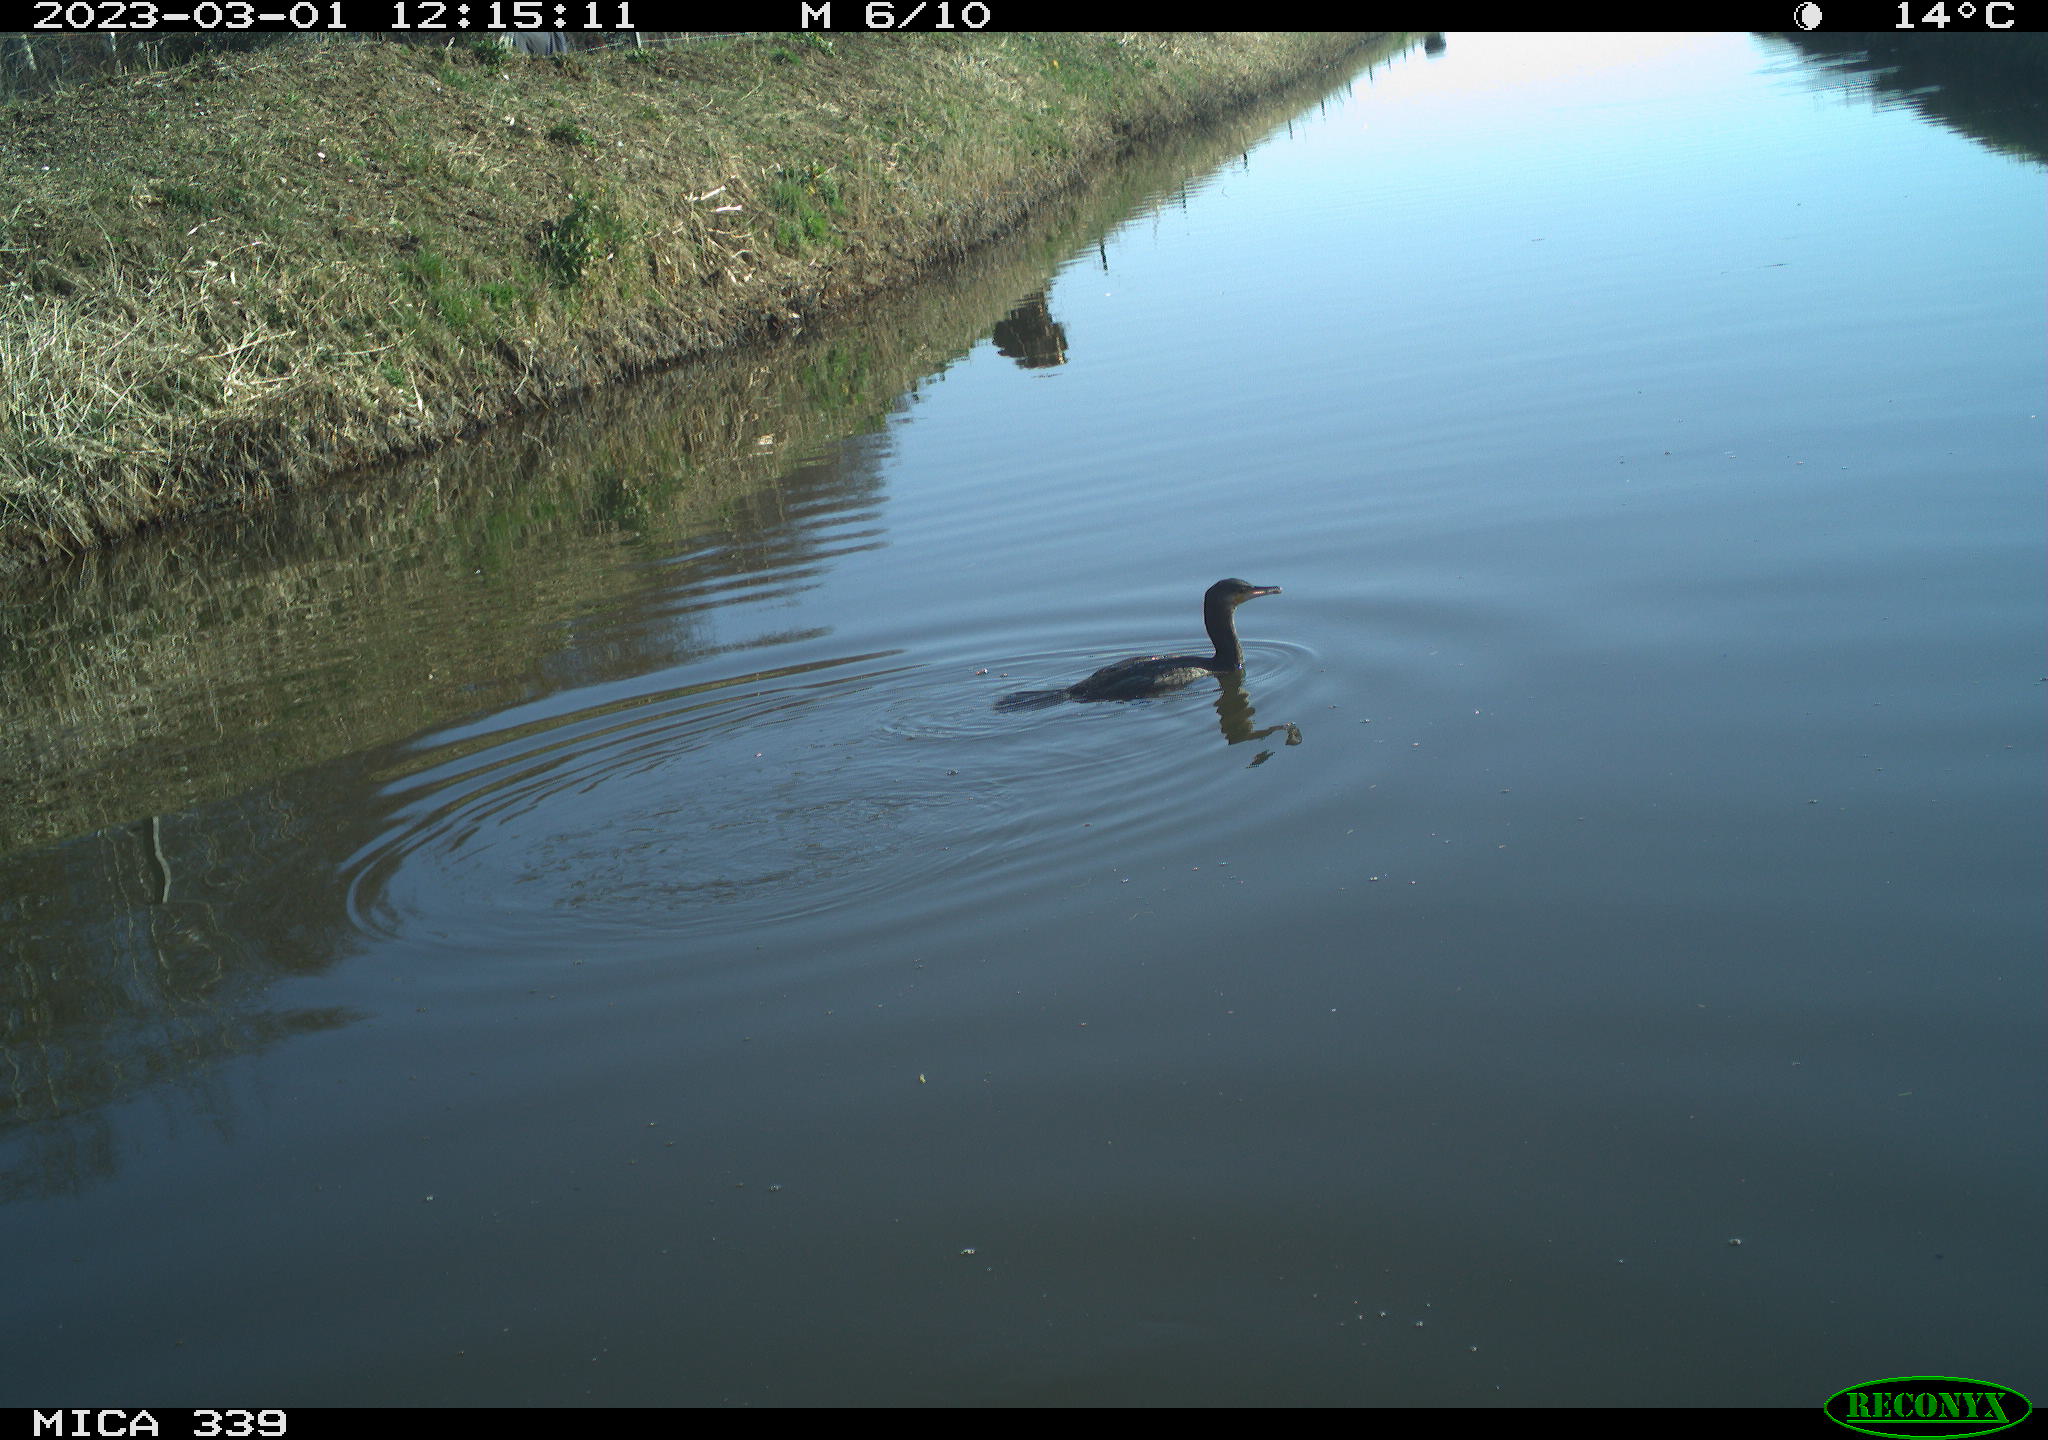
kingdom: Animalia
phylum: Chordata
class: Aves
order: Suliformes
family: Phalacrocoracidae
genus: Phalacrocorax
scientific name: Phalacrocorax carbo
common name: Great cormorant
